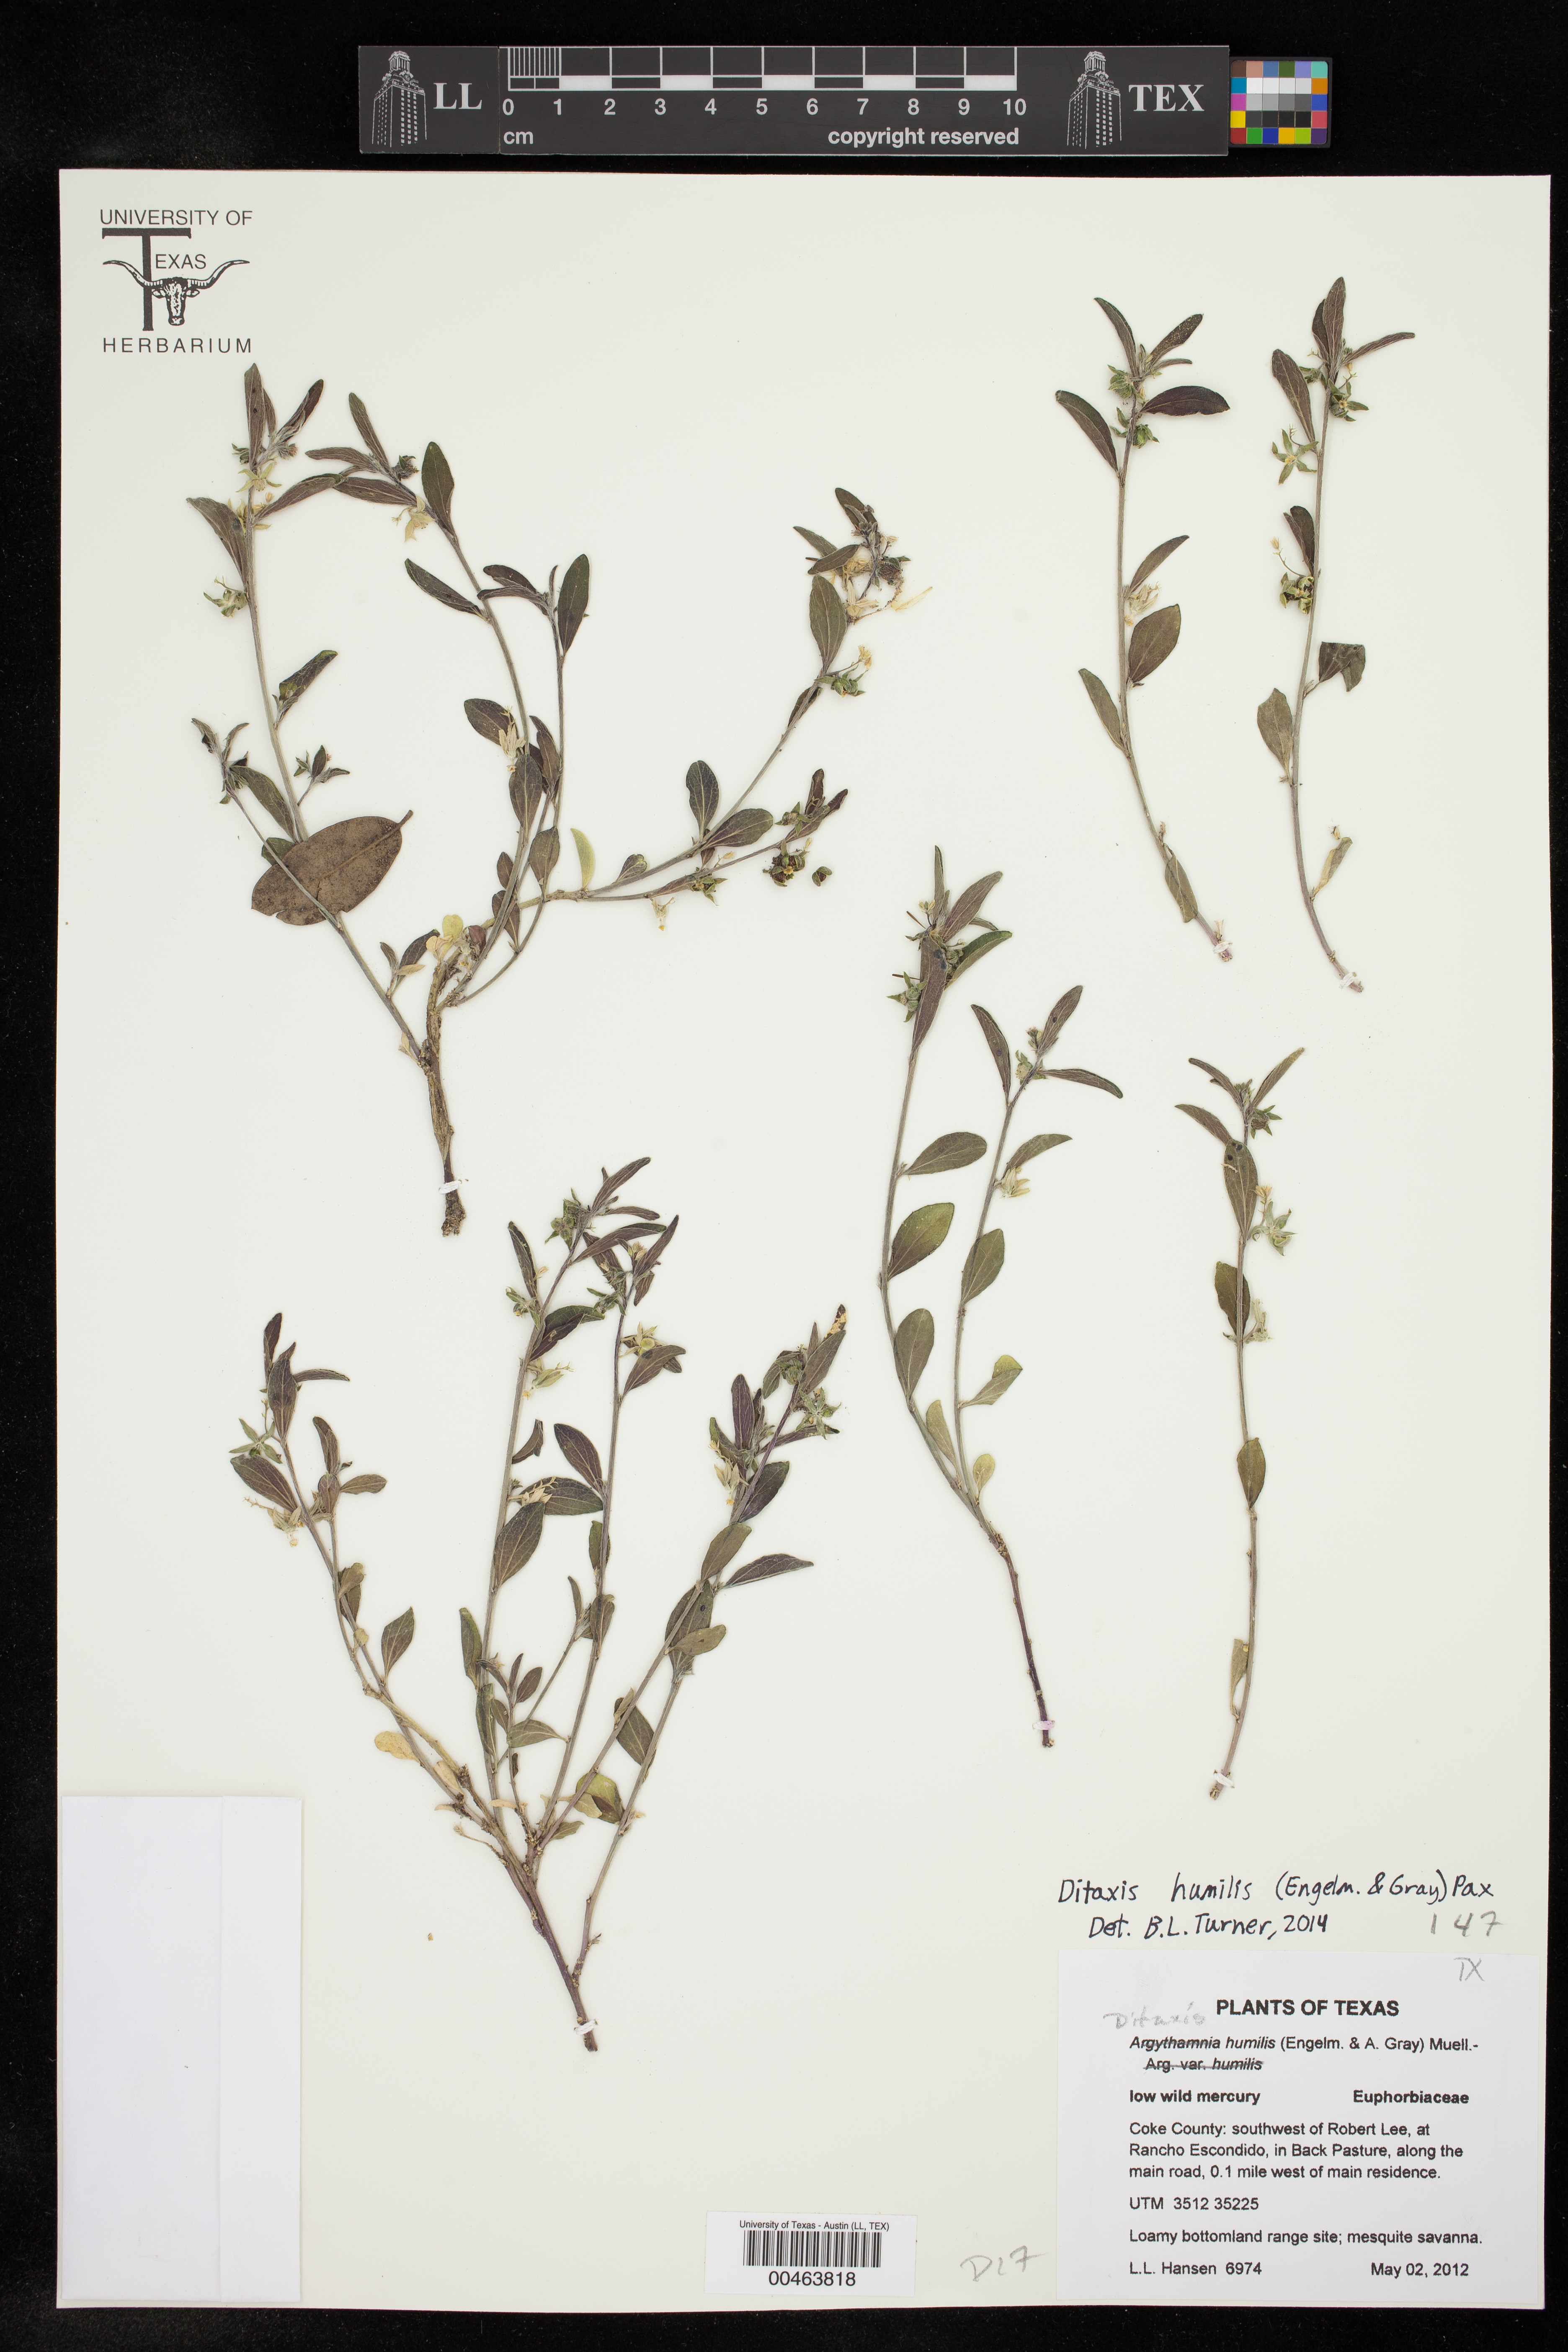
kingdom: Plantae
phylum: Tracheophyta
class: Magnoliopsida
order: Malpighiales
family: Euphorbiaceae
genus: Ditaxis
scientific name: Ditaxis humilis
